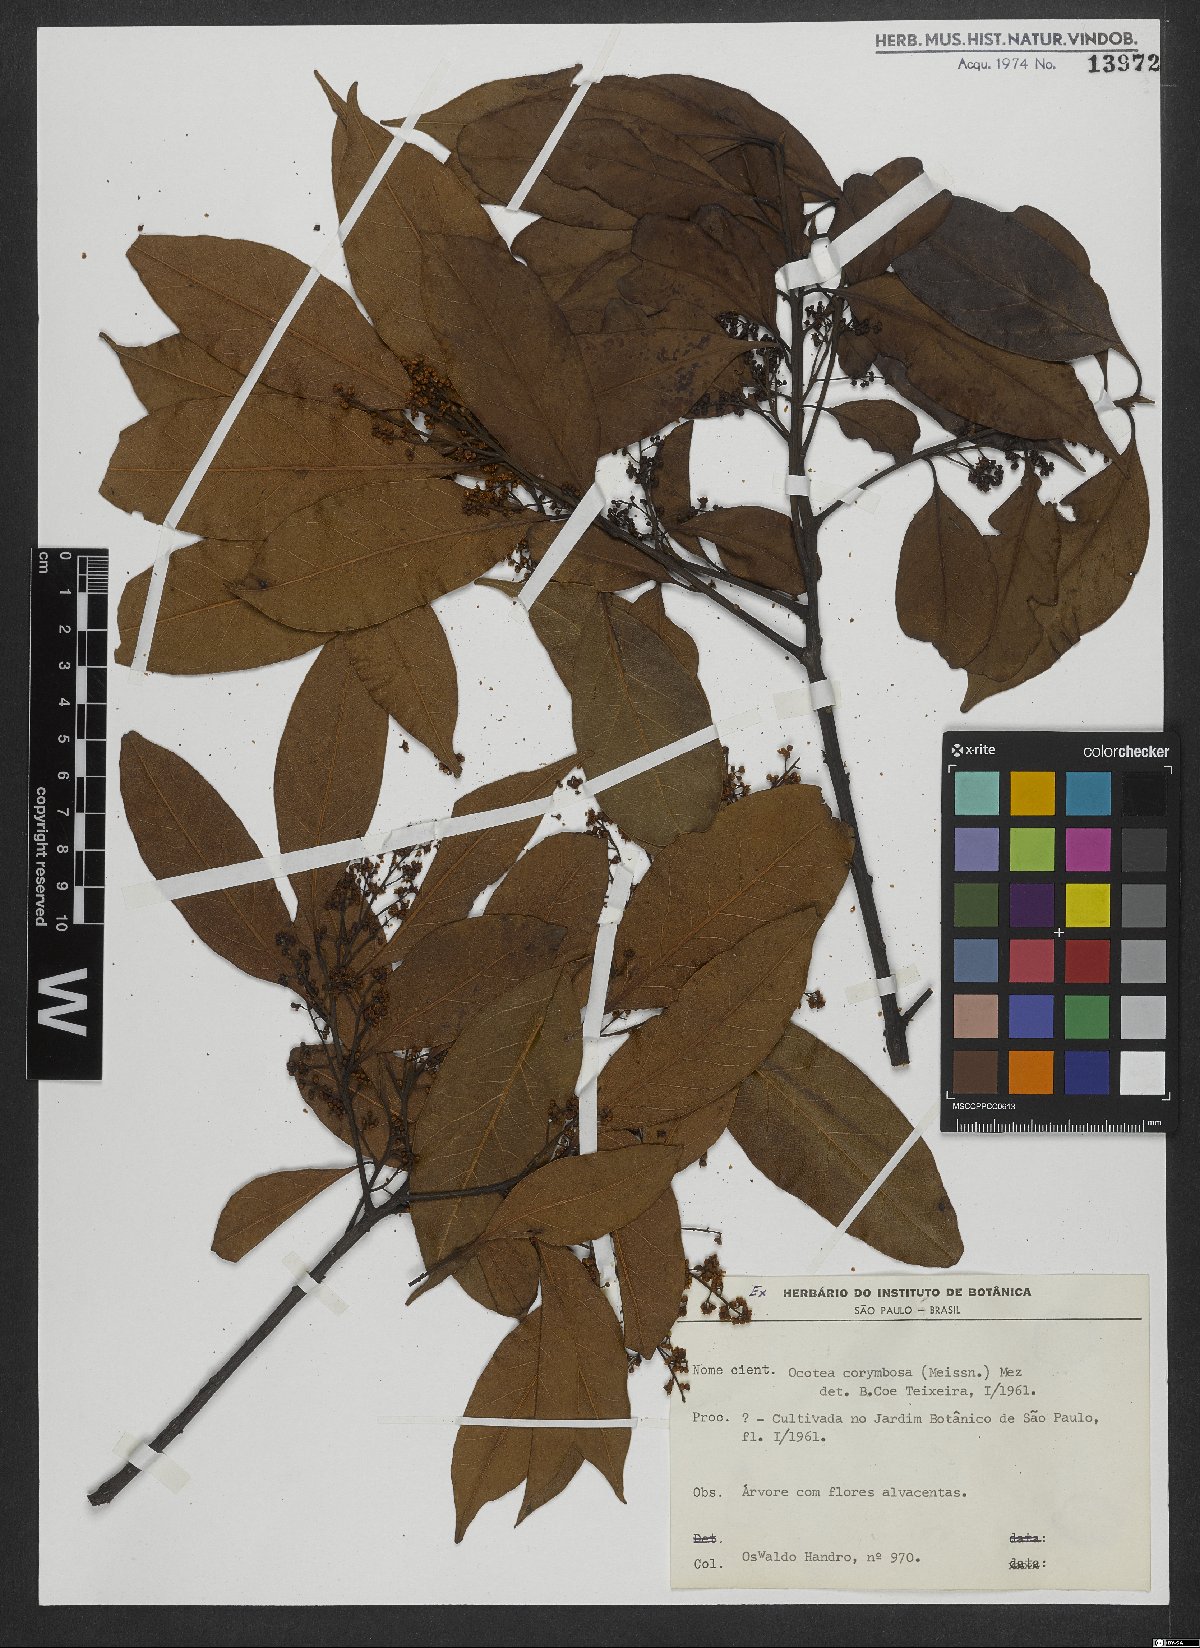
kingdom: Plantae
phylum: Tracheophyta
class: Magnoliopsida
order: Laurales
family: Lauraceae
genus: Mespilodaphne
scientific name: Mespilodaphne corymbosa
